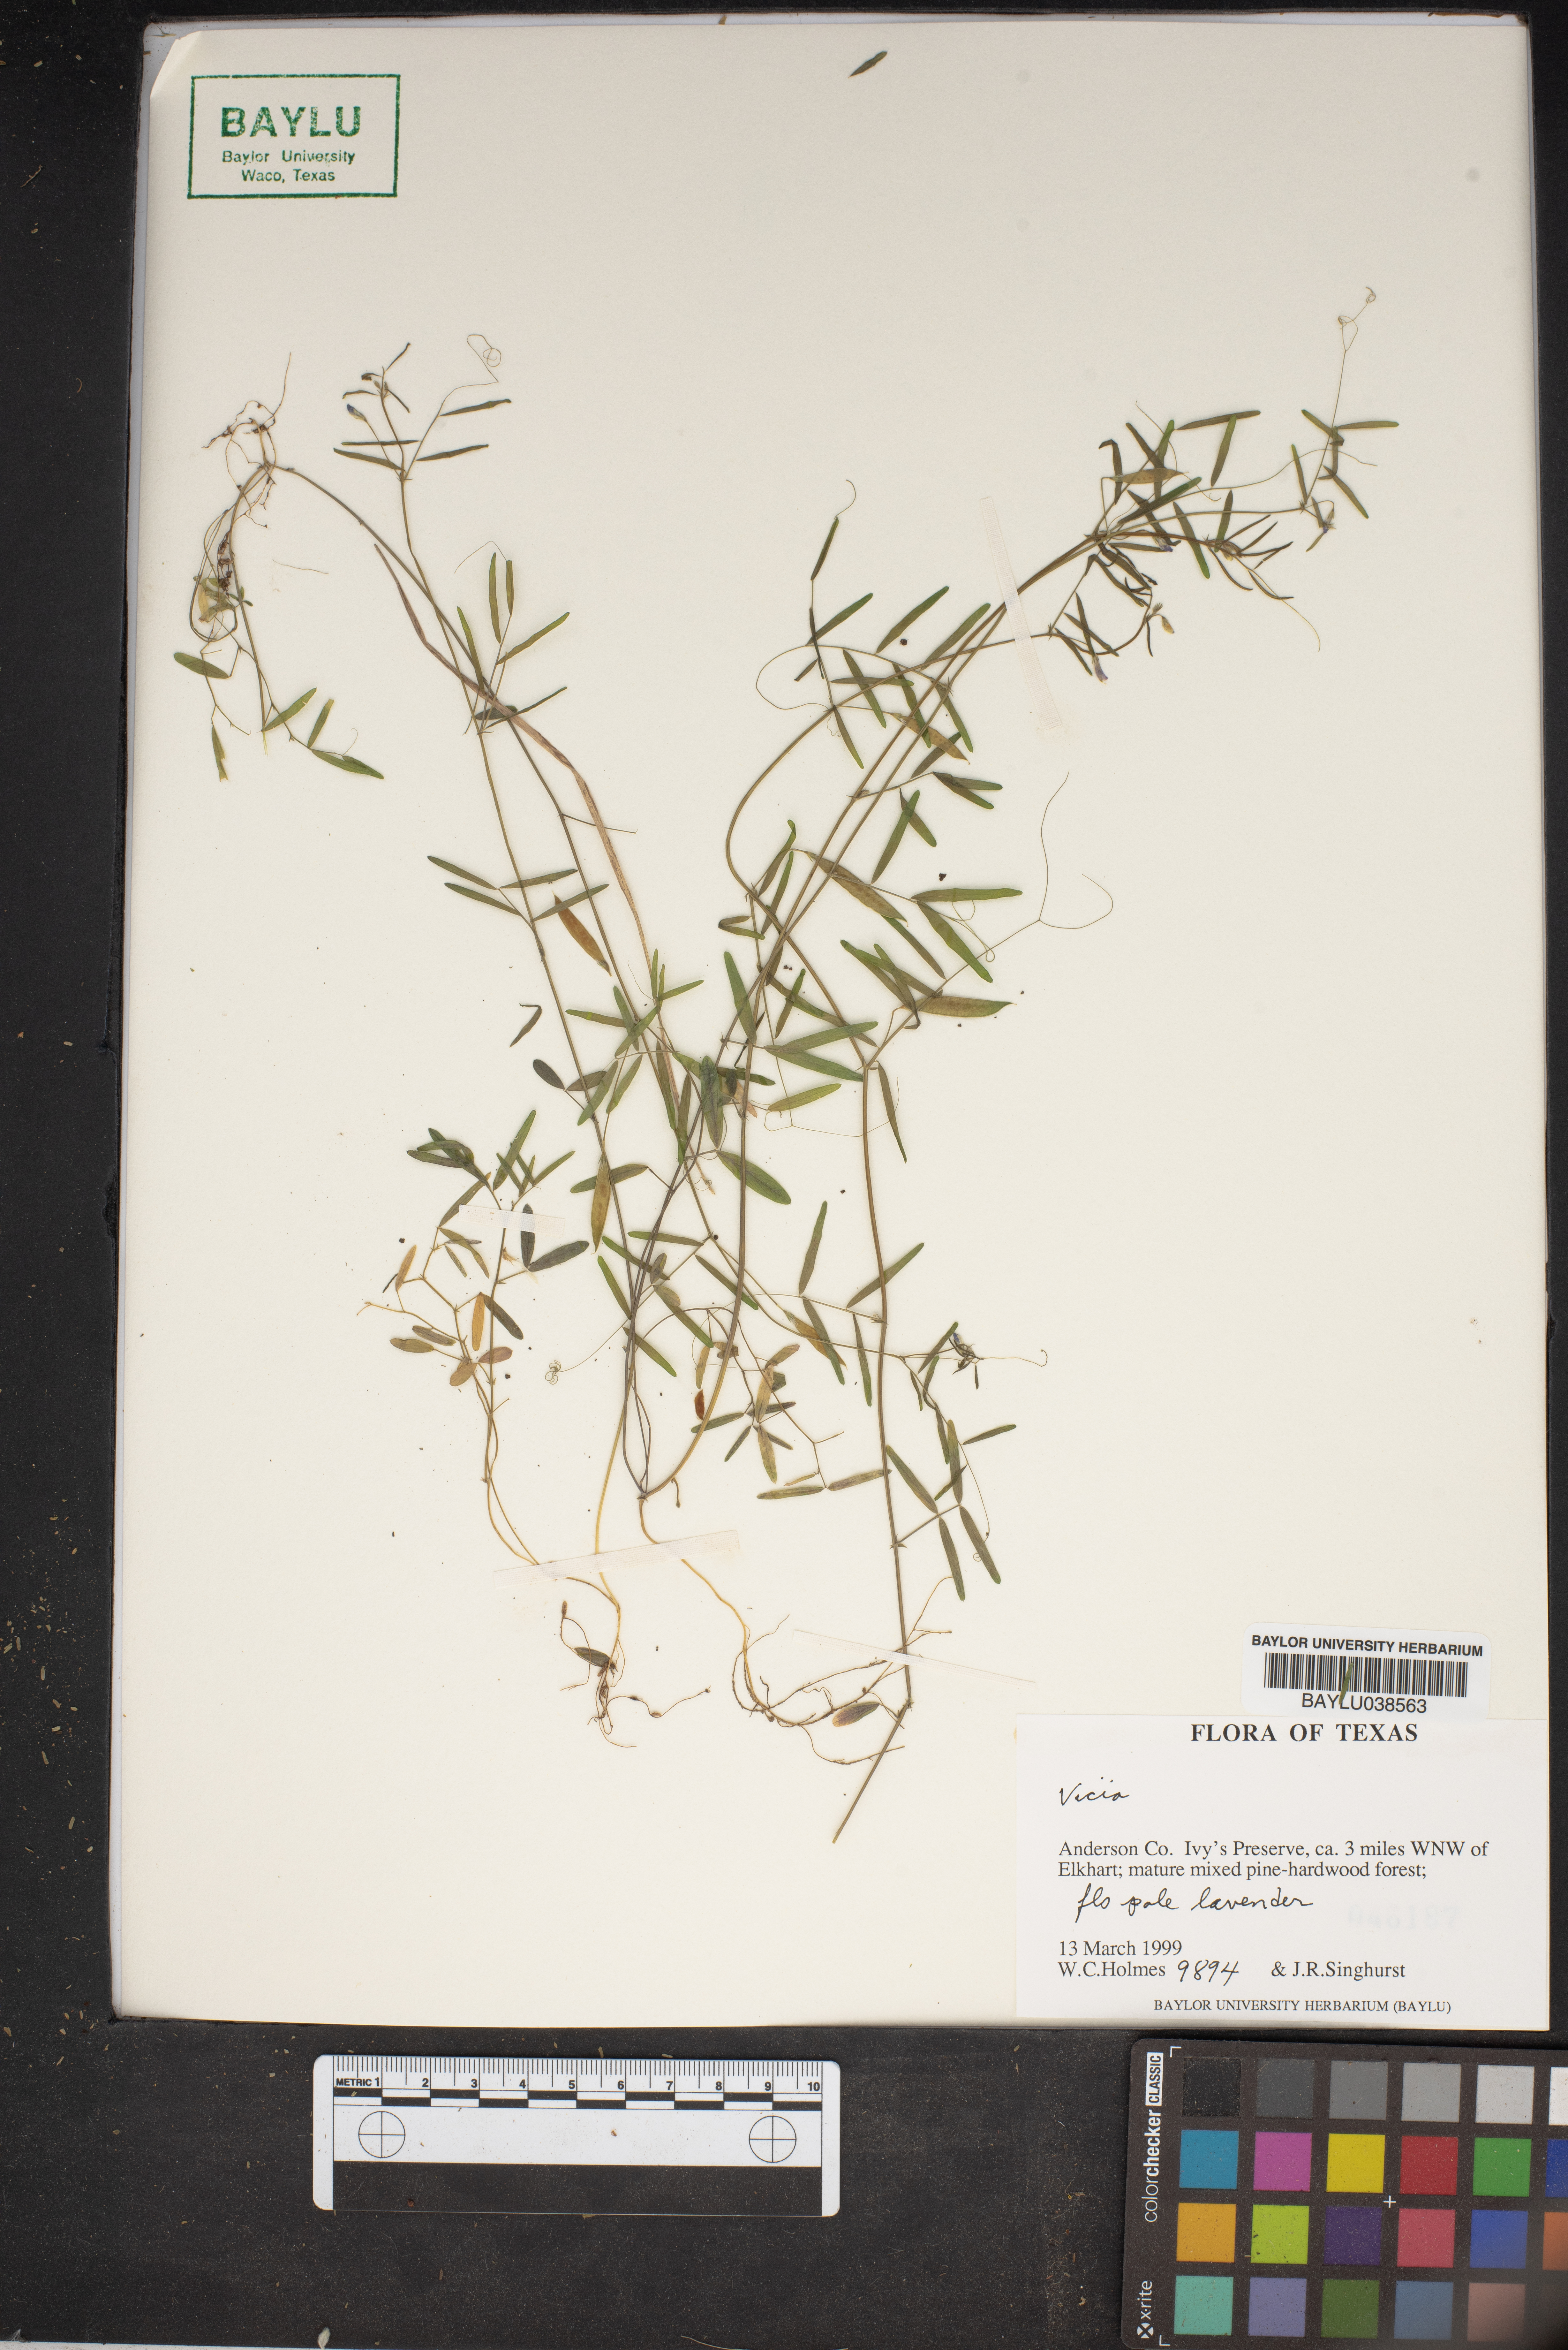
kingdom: Plantae
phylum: Tracheophyta
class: Magnoliopsida
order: Fabales
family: Fabaceae
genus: Vicia
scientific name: Vicia
